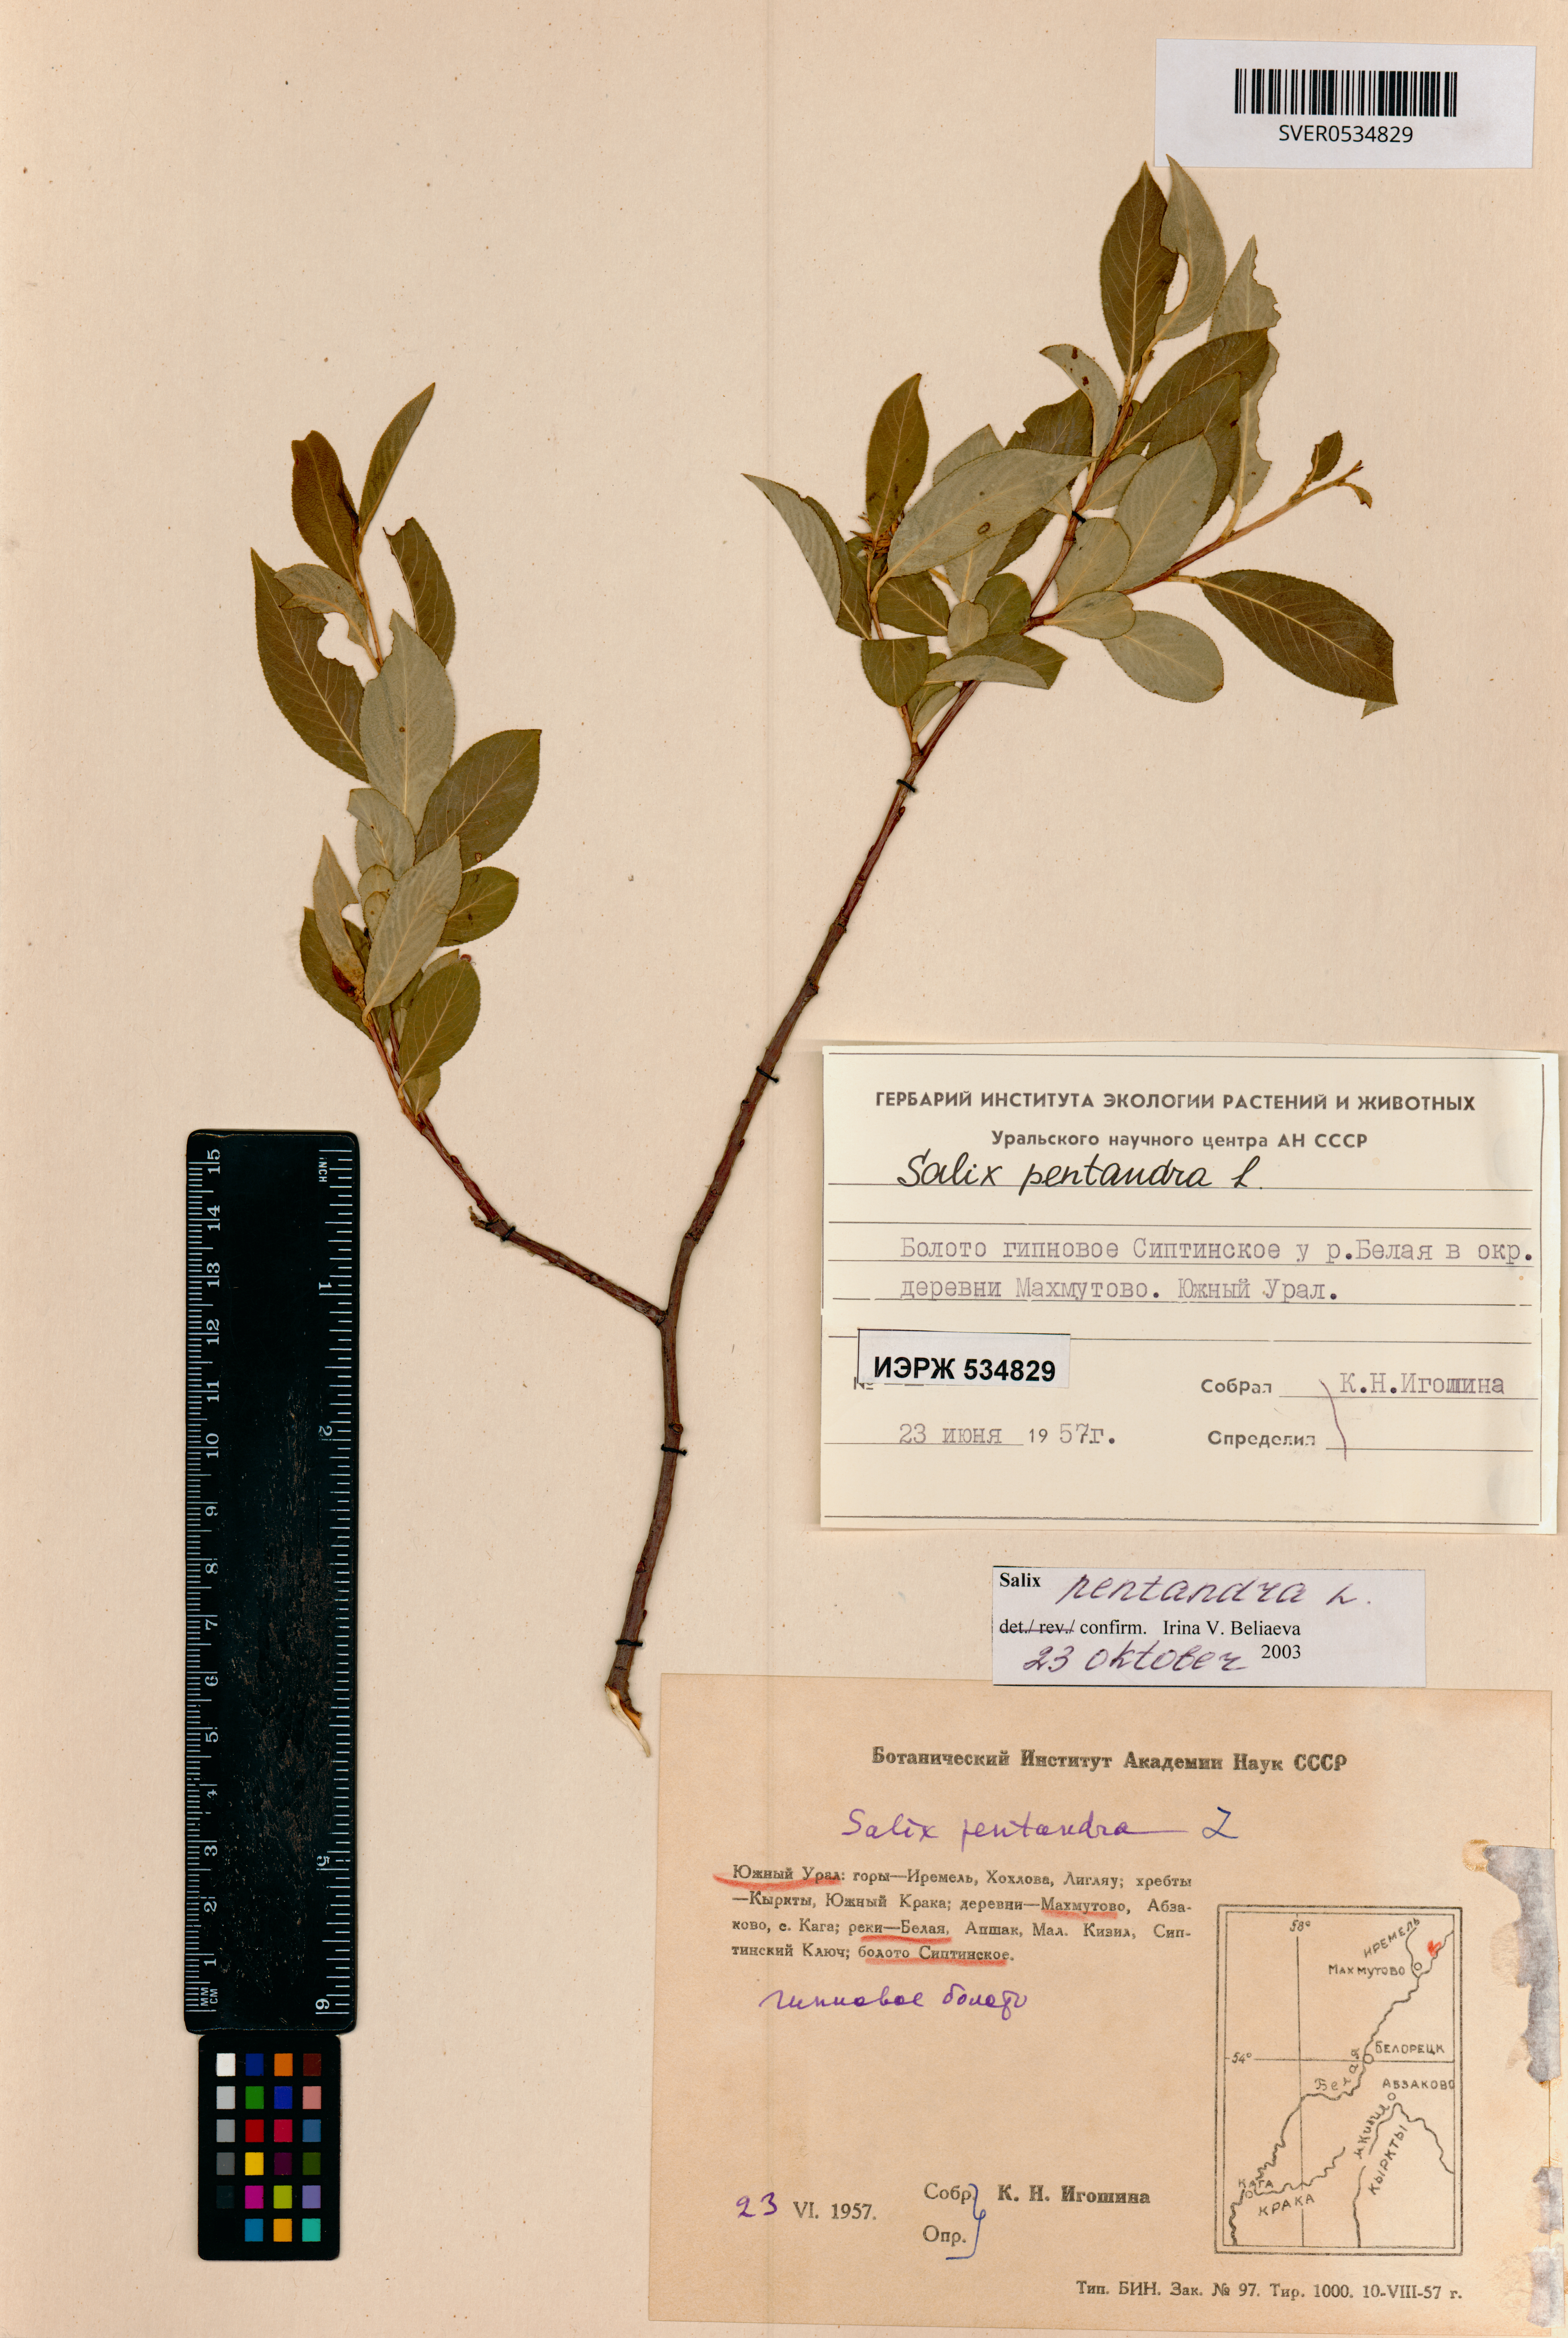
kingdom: Plantae
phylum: Tracheophyta
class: Magnoliopsida
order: Malpighiales
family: Salicaceae
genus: Salix
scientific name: Salix pentandra
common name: Bay willow
